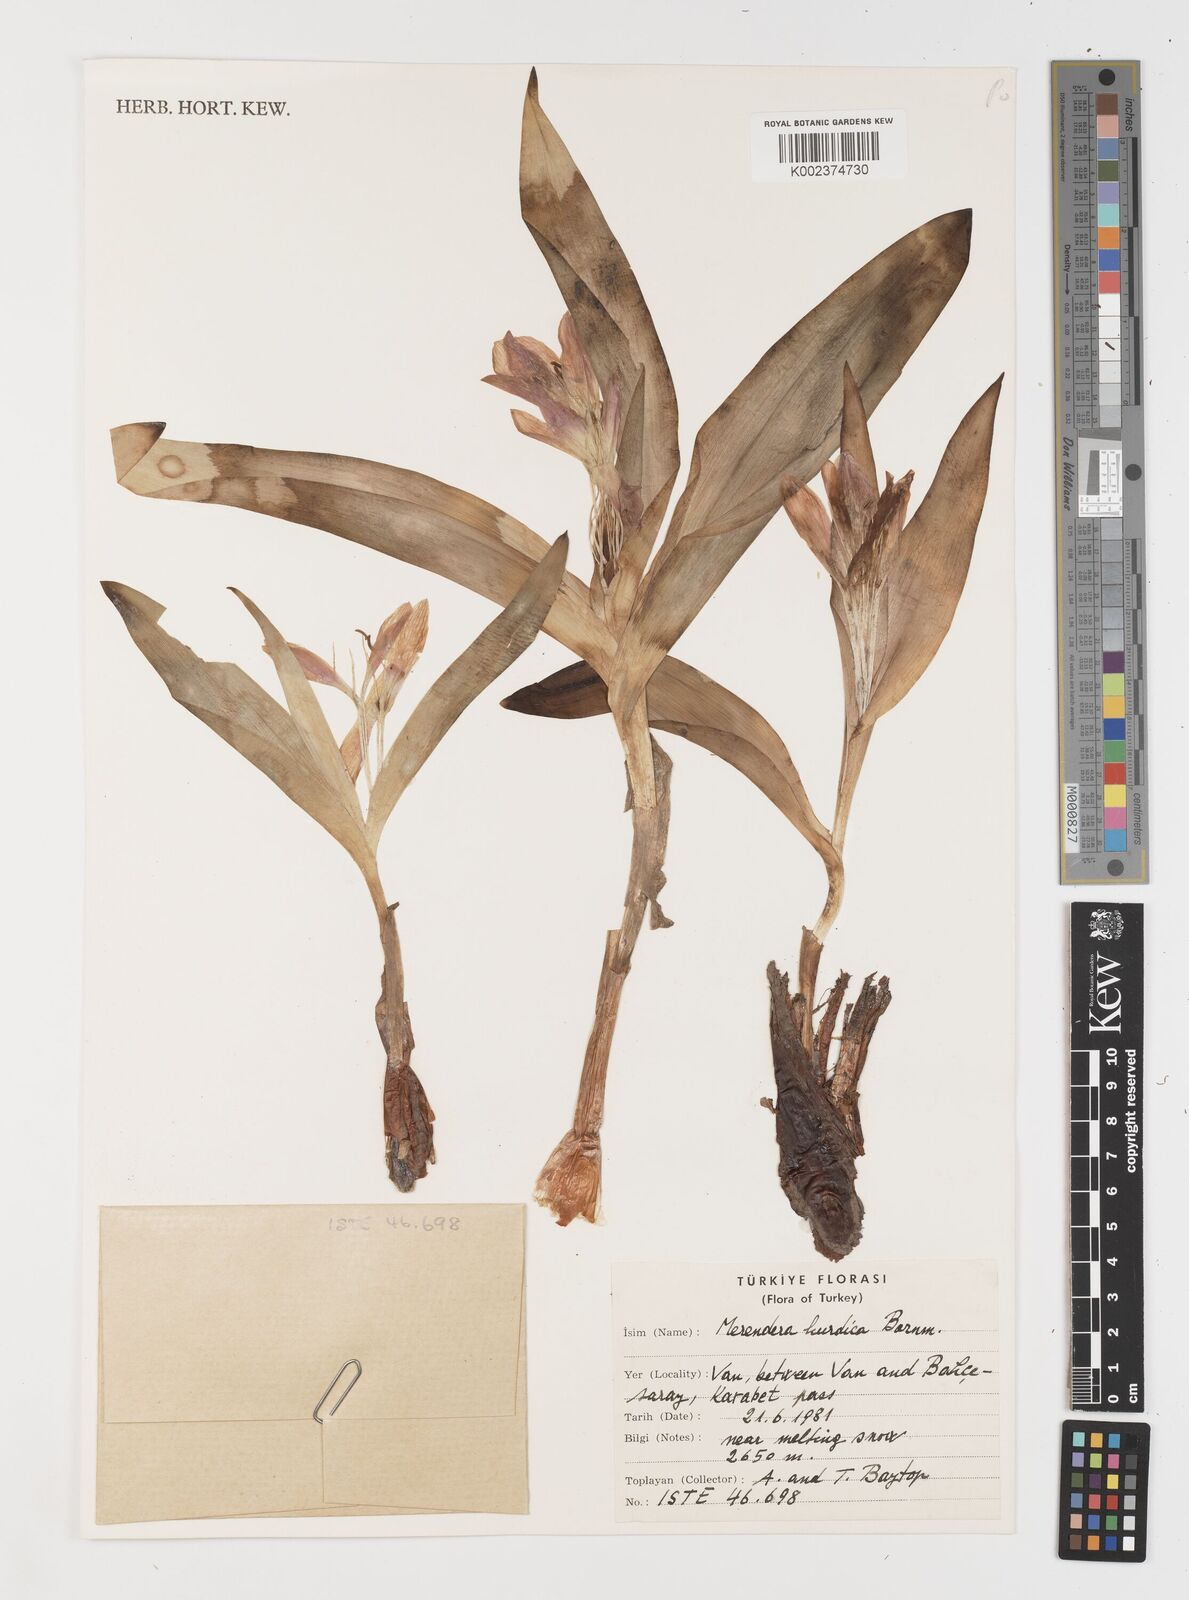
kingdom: Plantae
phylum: Tracheophyta
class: Liliopsida
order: Liliales
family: Colchicaceae
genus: Colchicum
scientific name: Colchicum kurdicum
